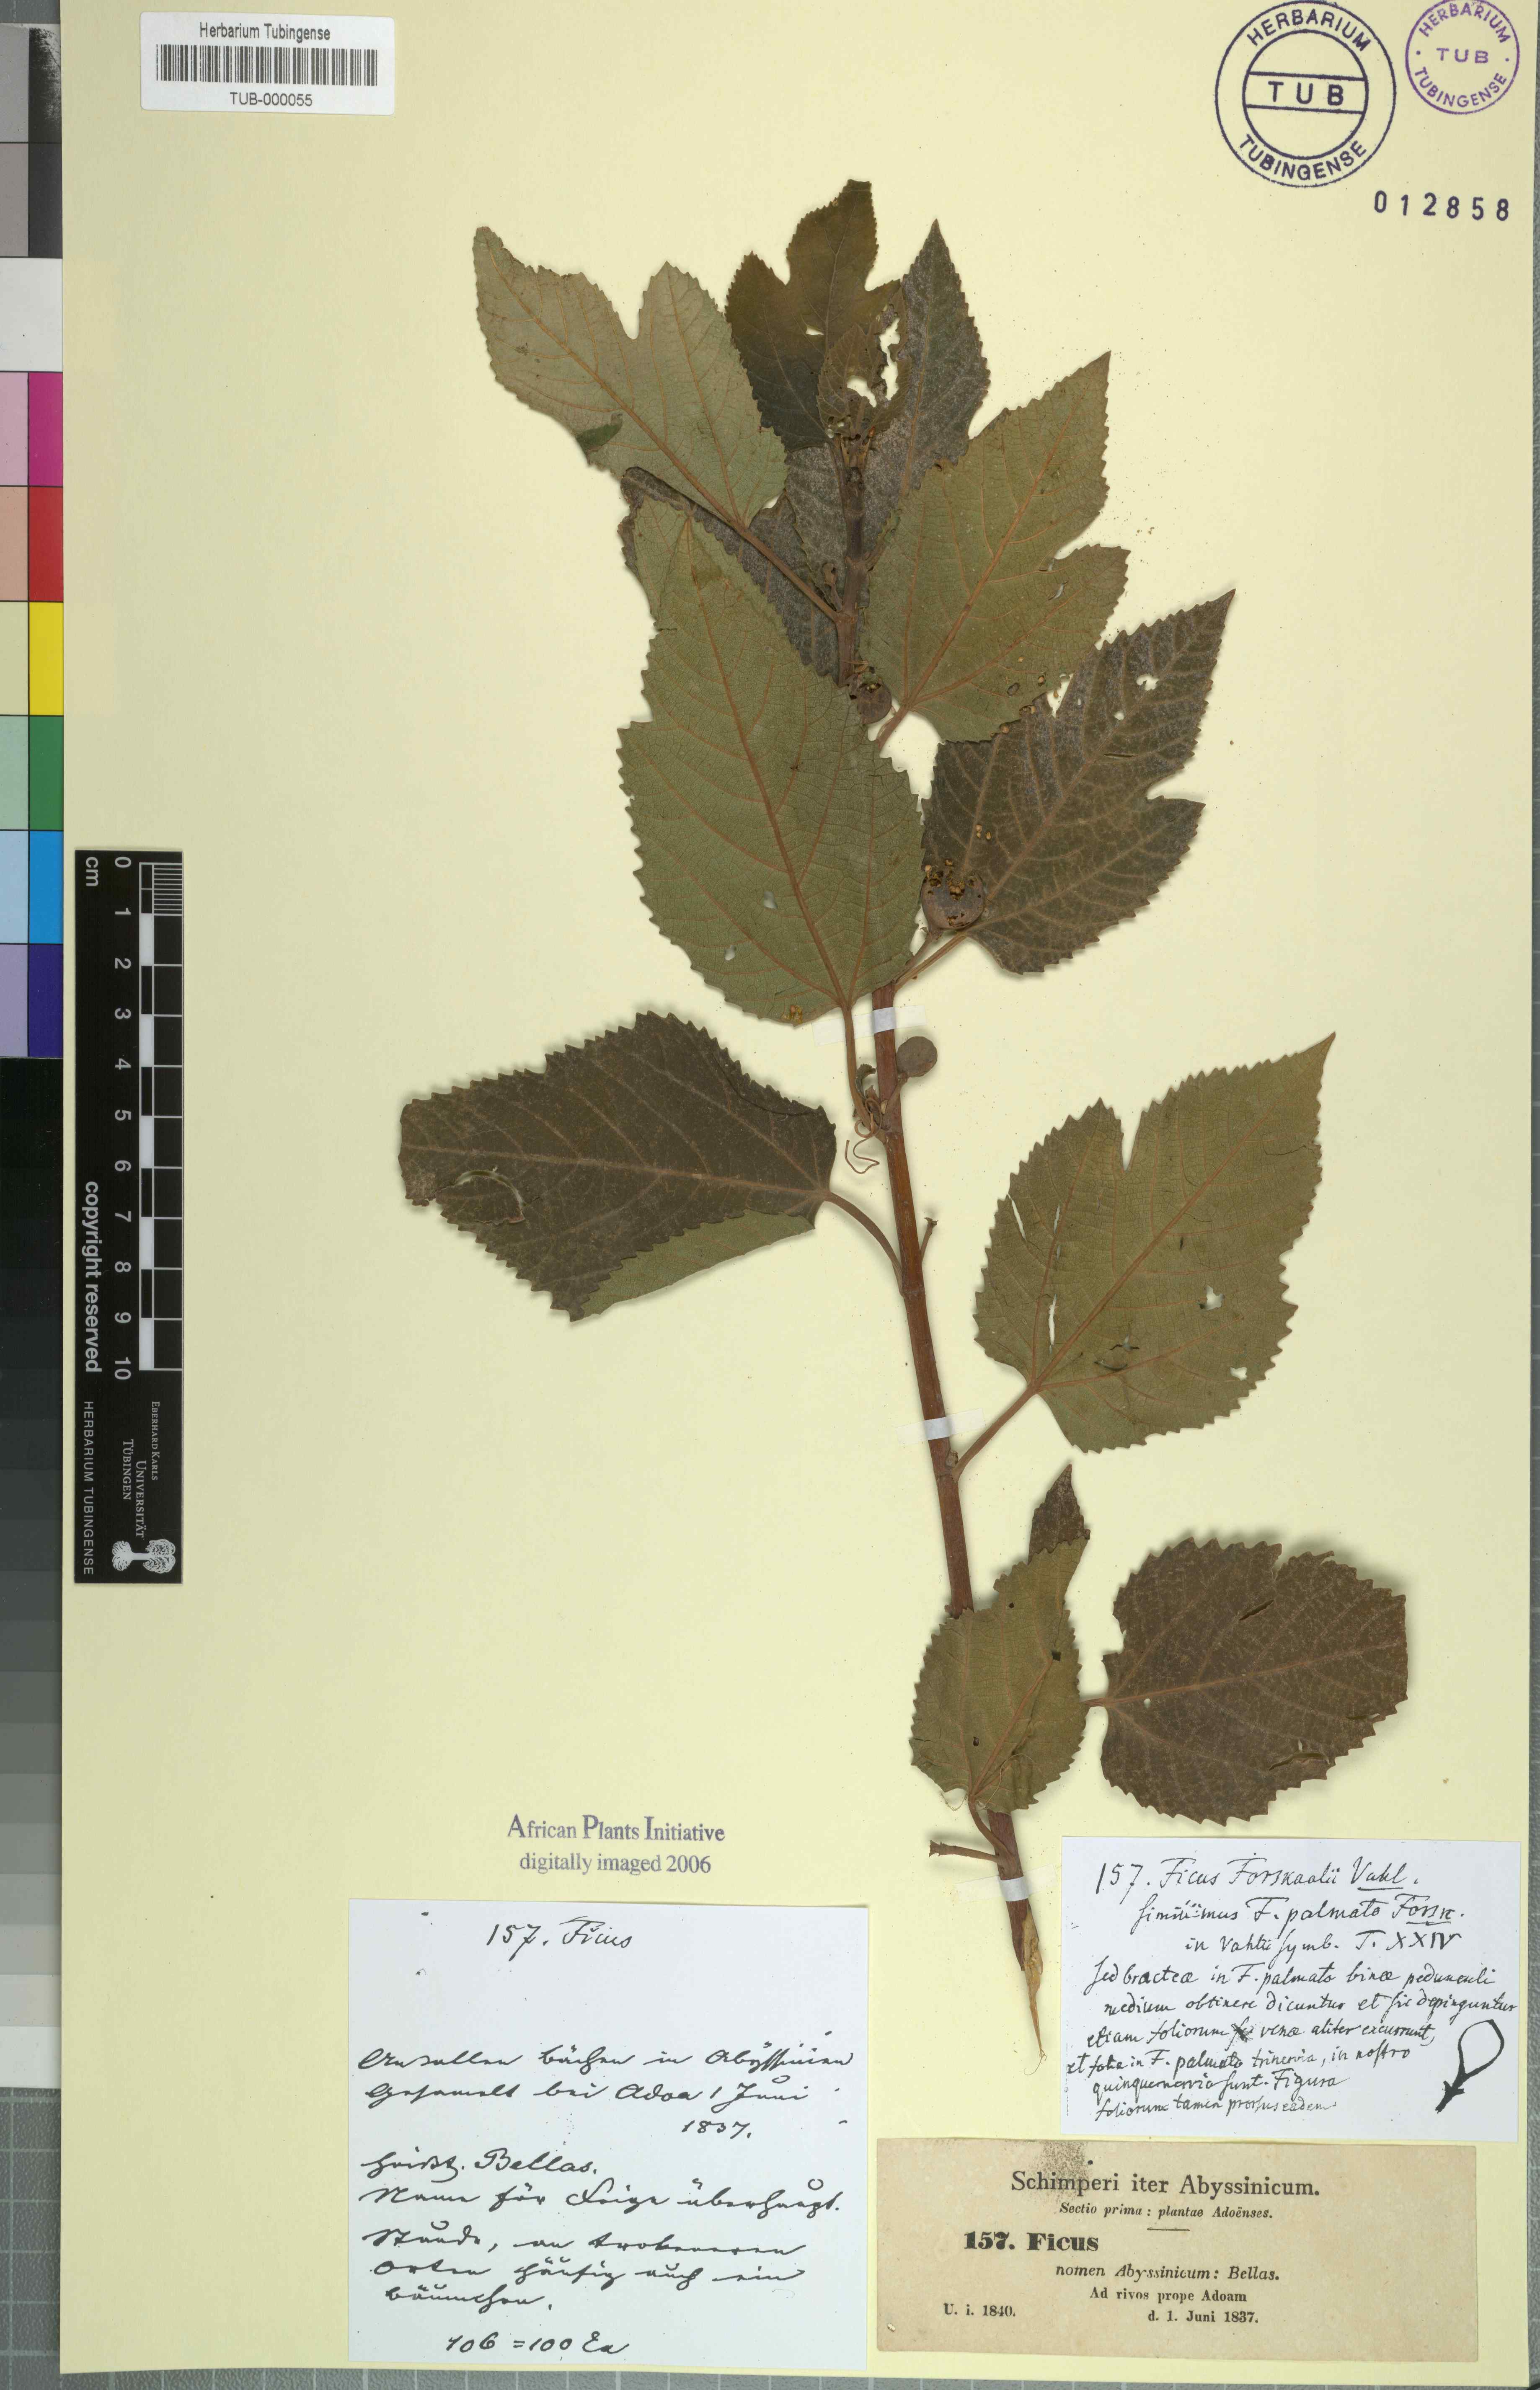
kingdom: Plantae
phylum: Tracheophyta
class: Magnoliopsida
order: Rosales
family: Moraceae
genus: Ficus
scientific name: Ficus palmata
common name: Punjab fig
